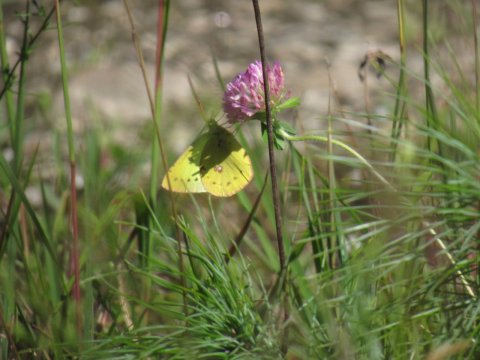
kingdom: Animalia
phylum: Arthropoda
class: Insecta
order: Lepidoptera
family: Pieridae
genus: Colias
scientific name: Colias philodice
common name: Clouded Sulphur
